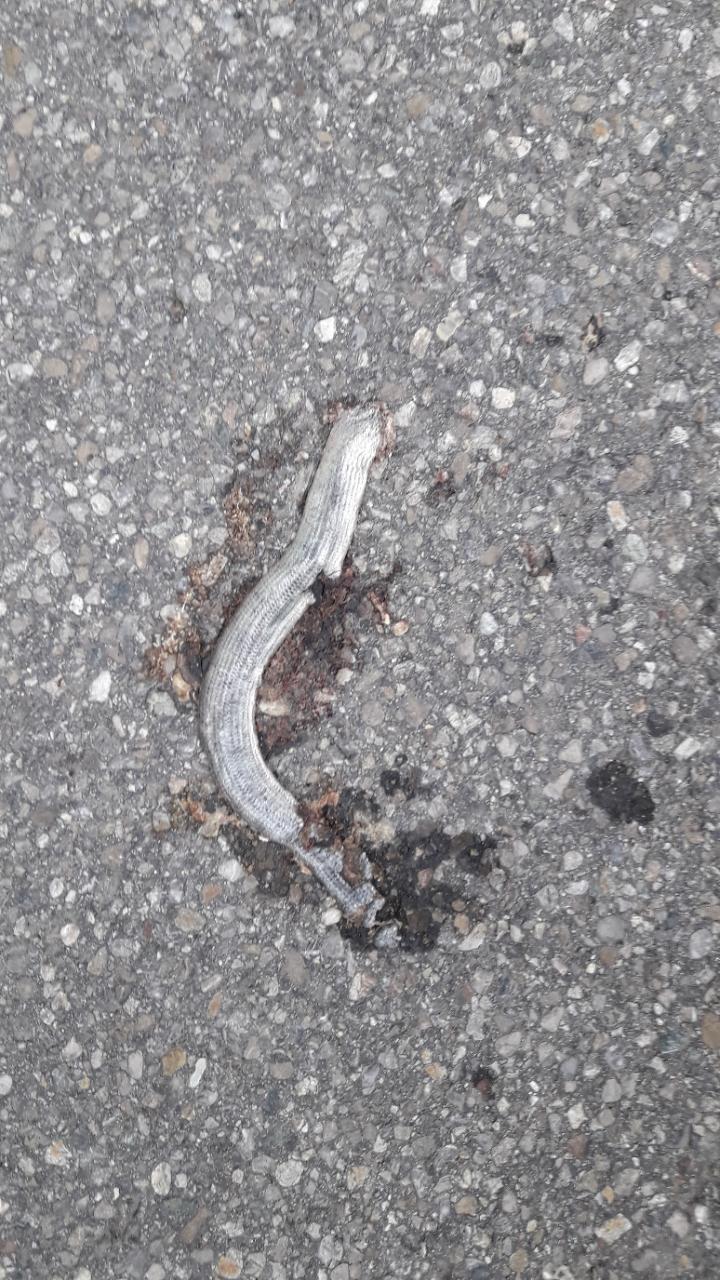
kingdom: Animalia
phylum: Chordata
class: Squamata
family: Anguidae
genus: Anguis
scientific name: Anguis fragilis
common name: Slow worm
